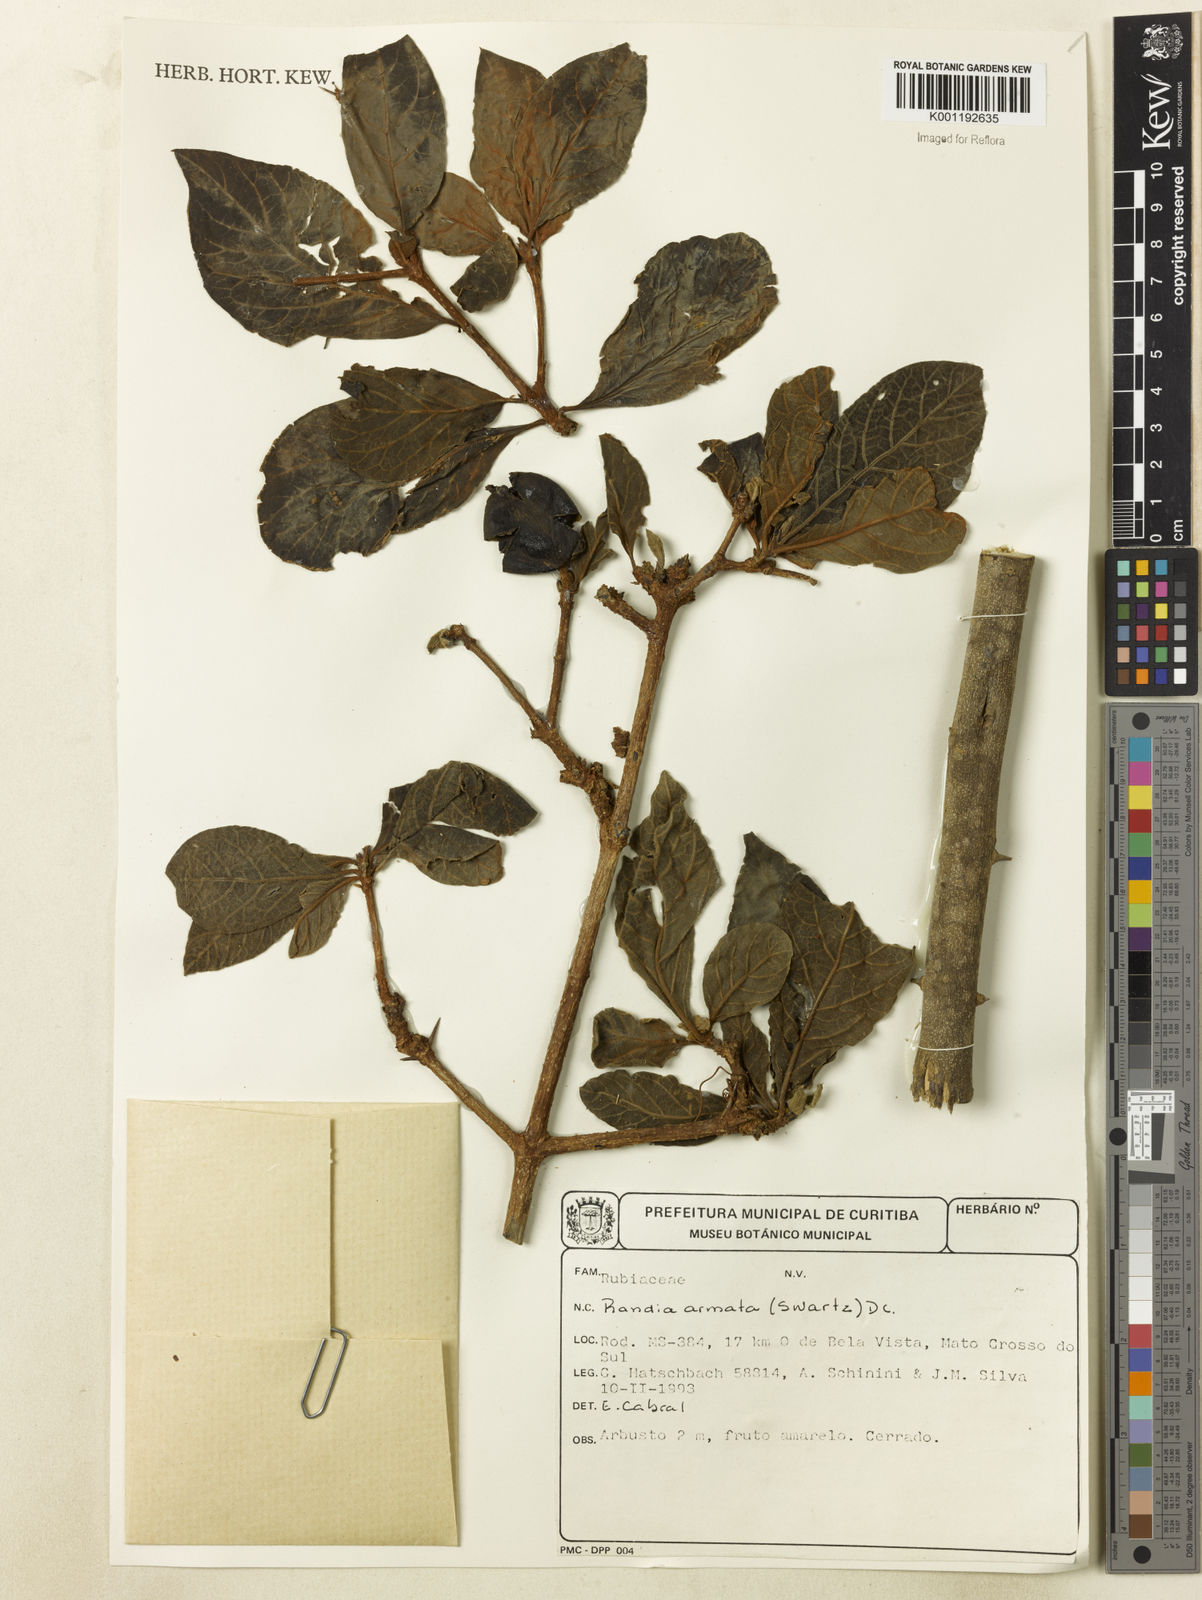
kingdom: Plantae
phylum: Tracheophyta
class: Magnoliopsida
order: Gentianales
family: Rubiaceae
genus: Randia
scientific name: Randia armata
